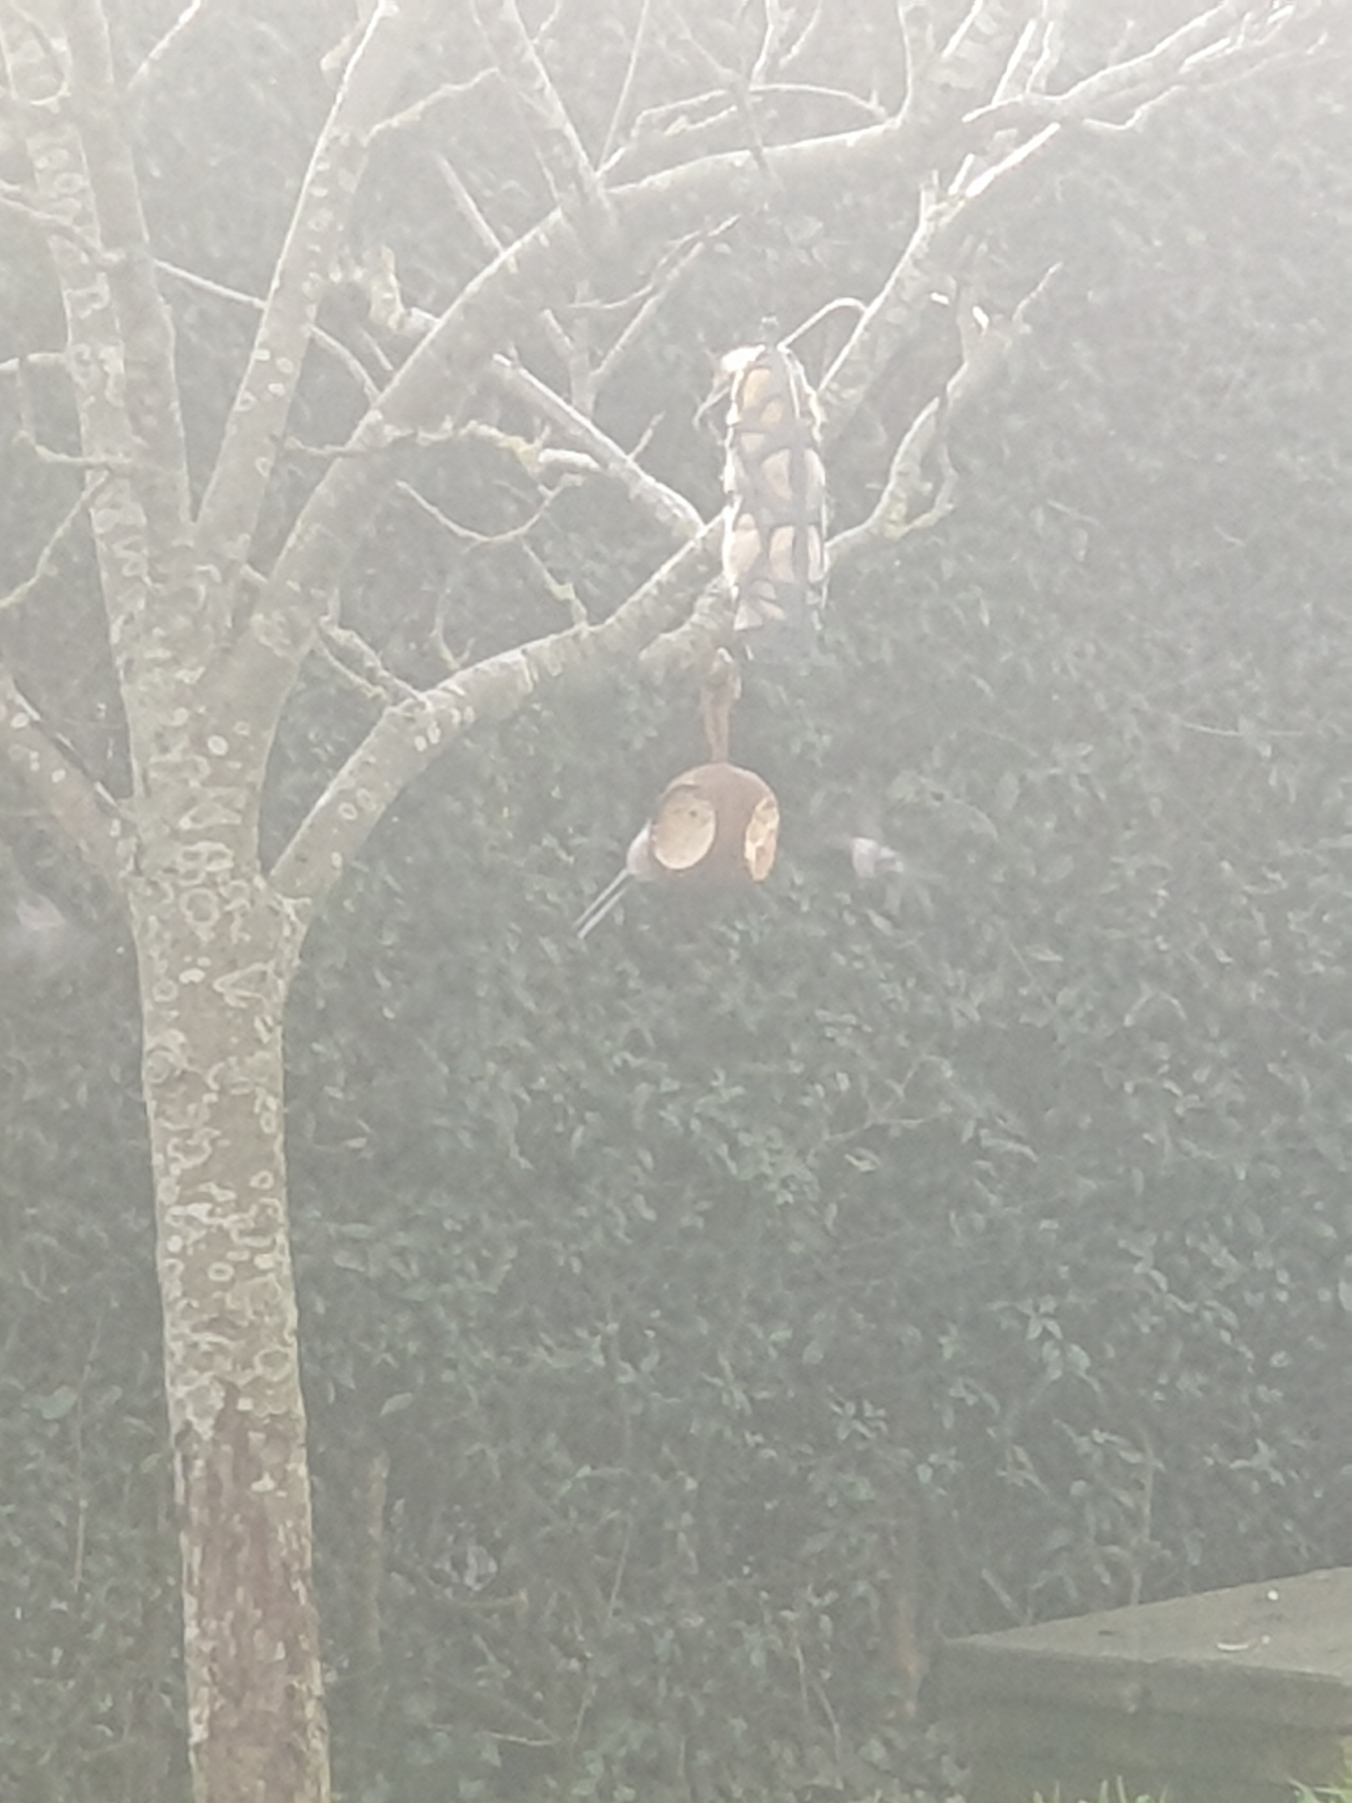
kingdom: Animalia
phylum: Chordata
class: Aves
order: Passeriformes
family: Aegithalidae
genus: Aegithalos
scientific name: Aegithalos caudatus
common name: Sydlig halemejse
